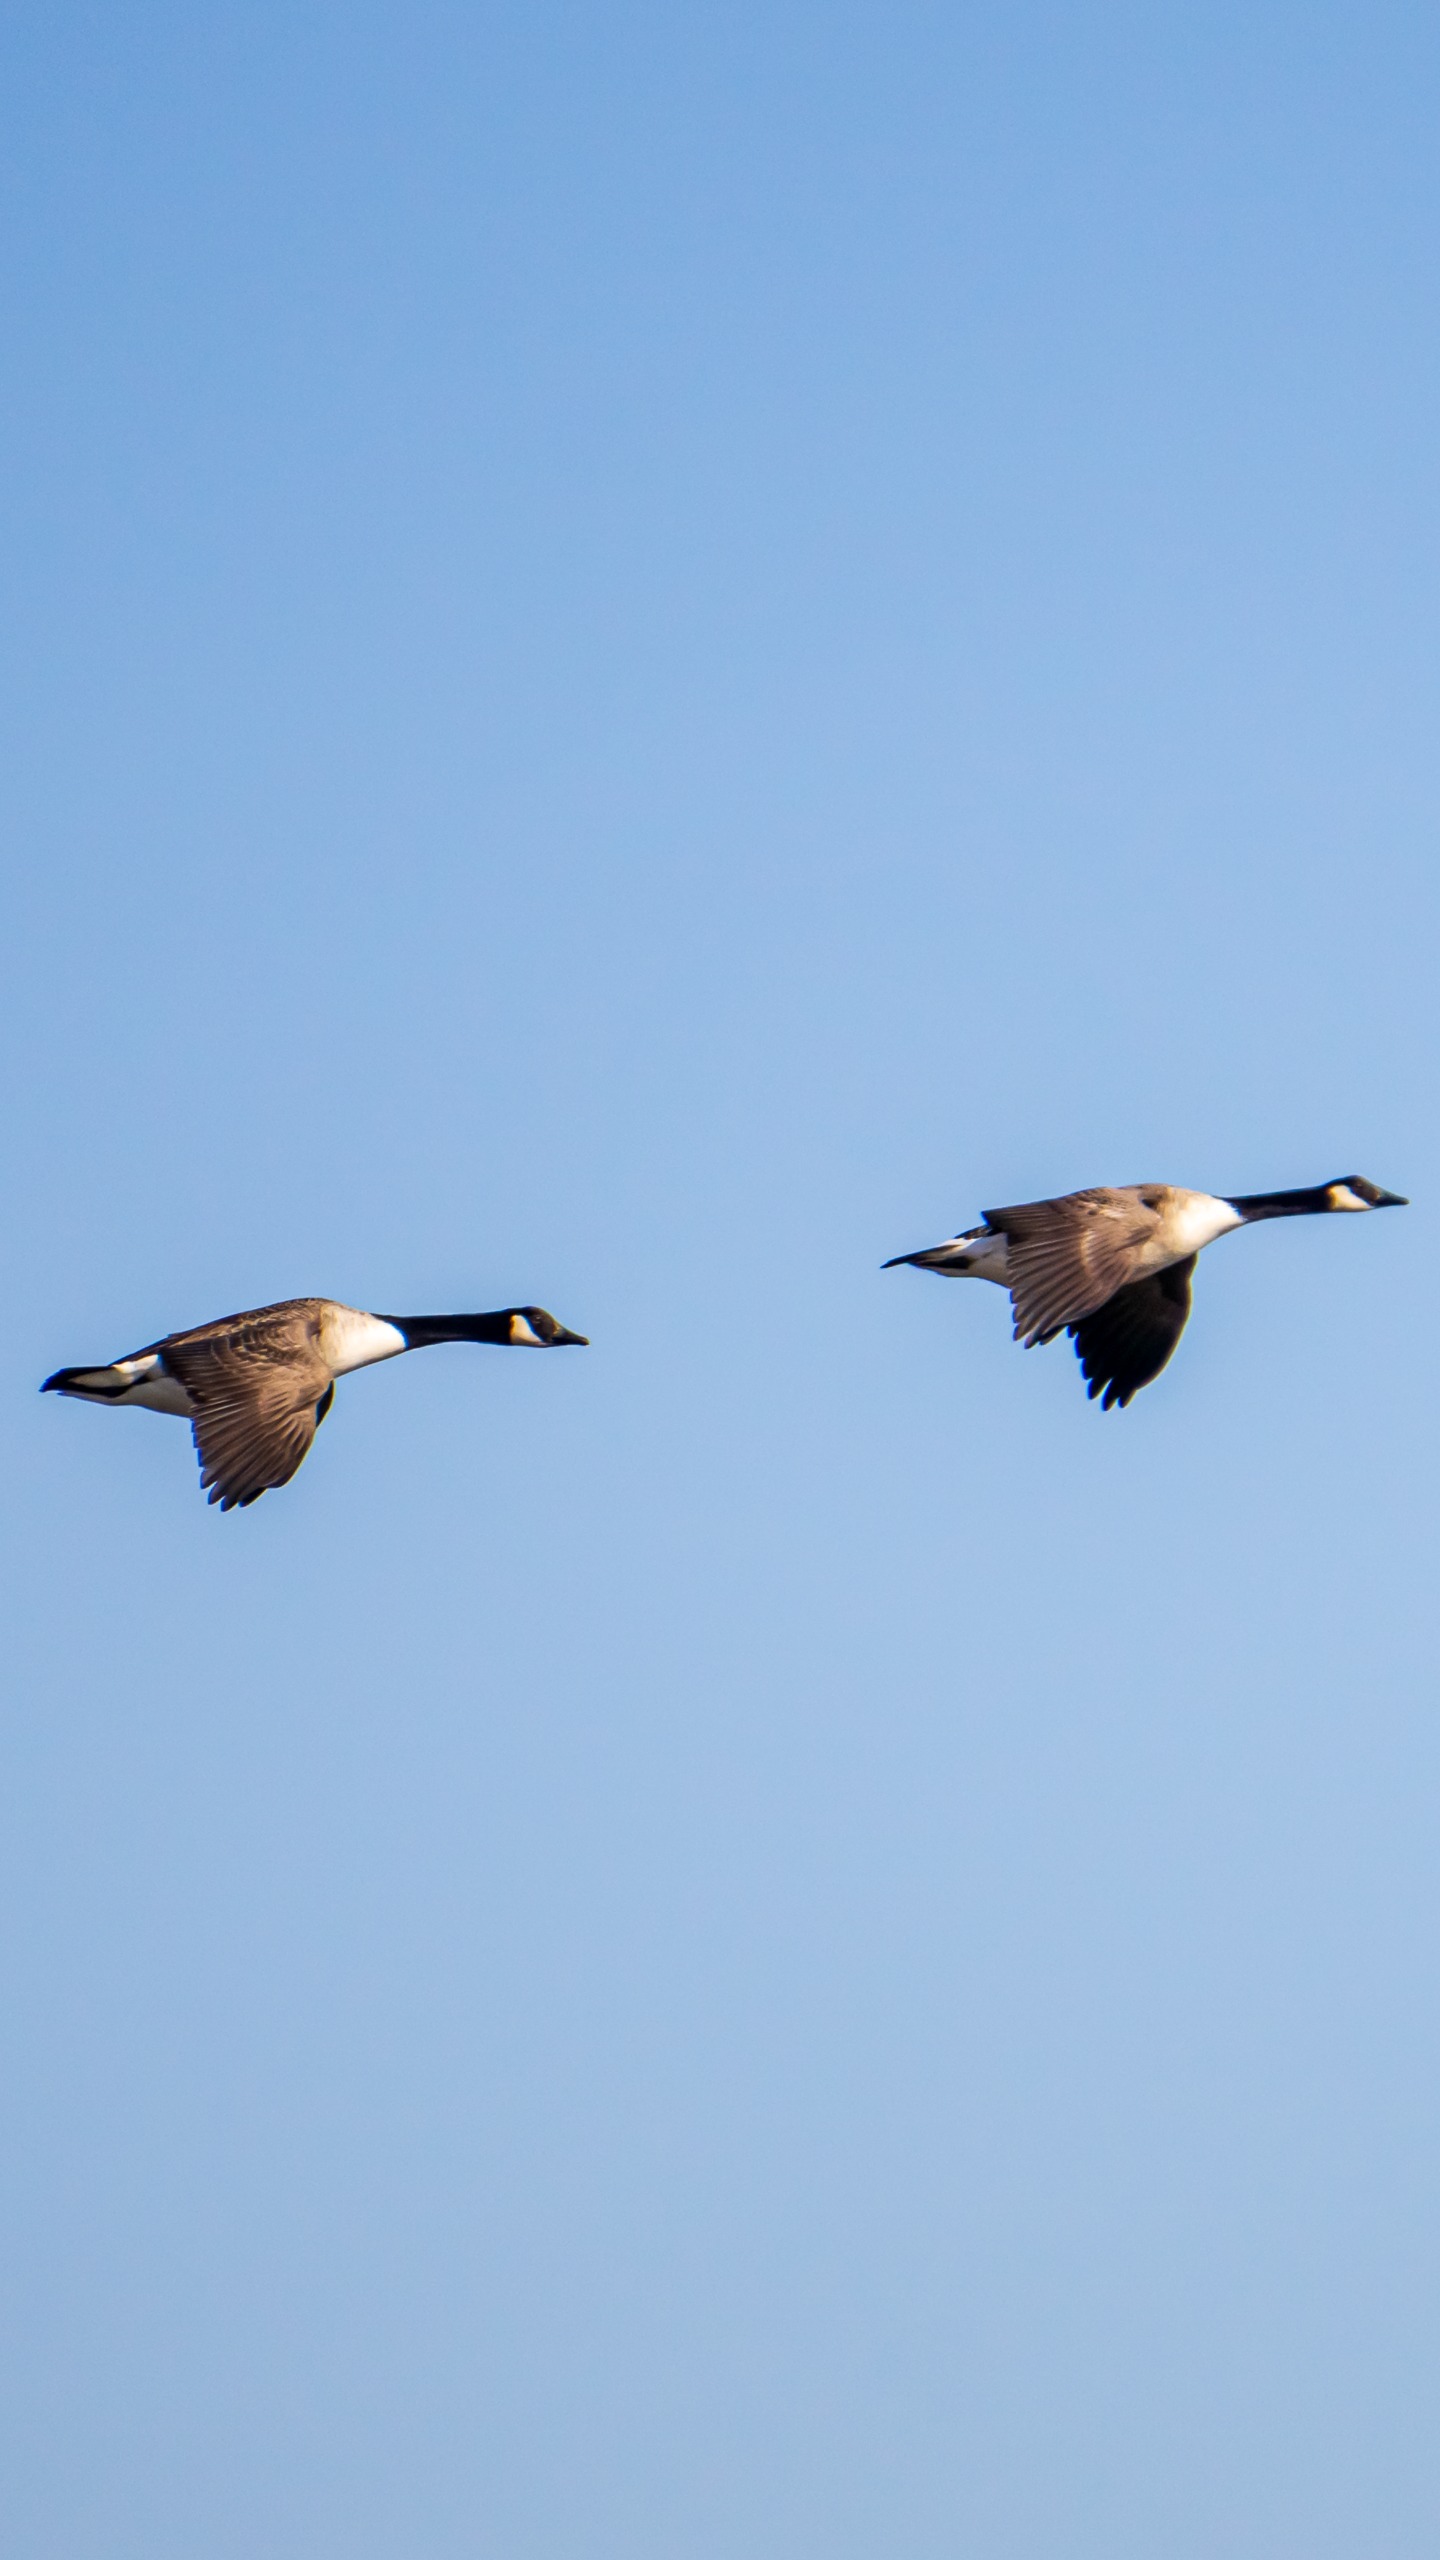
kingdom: Animalia
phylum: Chordata
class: Aves
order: Anseriformes
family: Anatidae
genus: Branta
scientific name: Branta canadensis
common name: Canadagås
